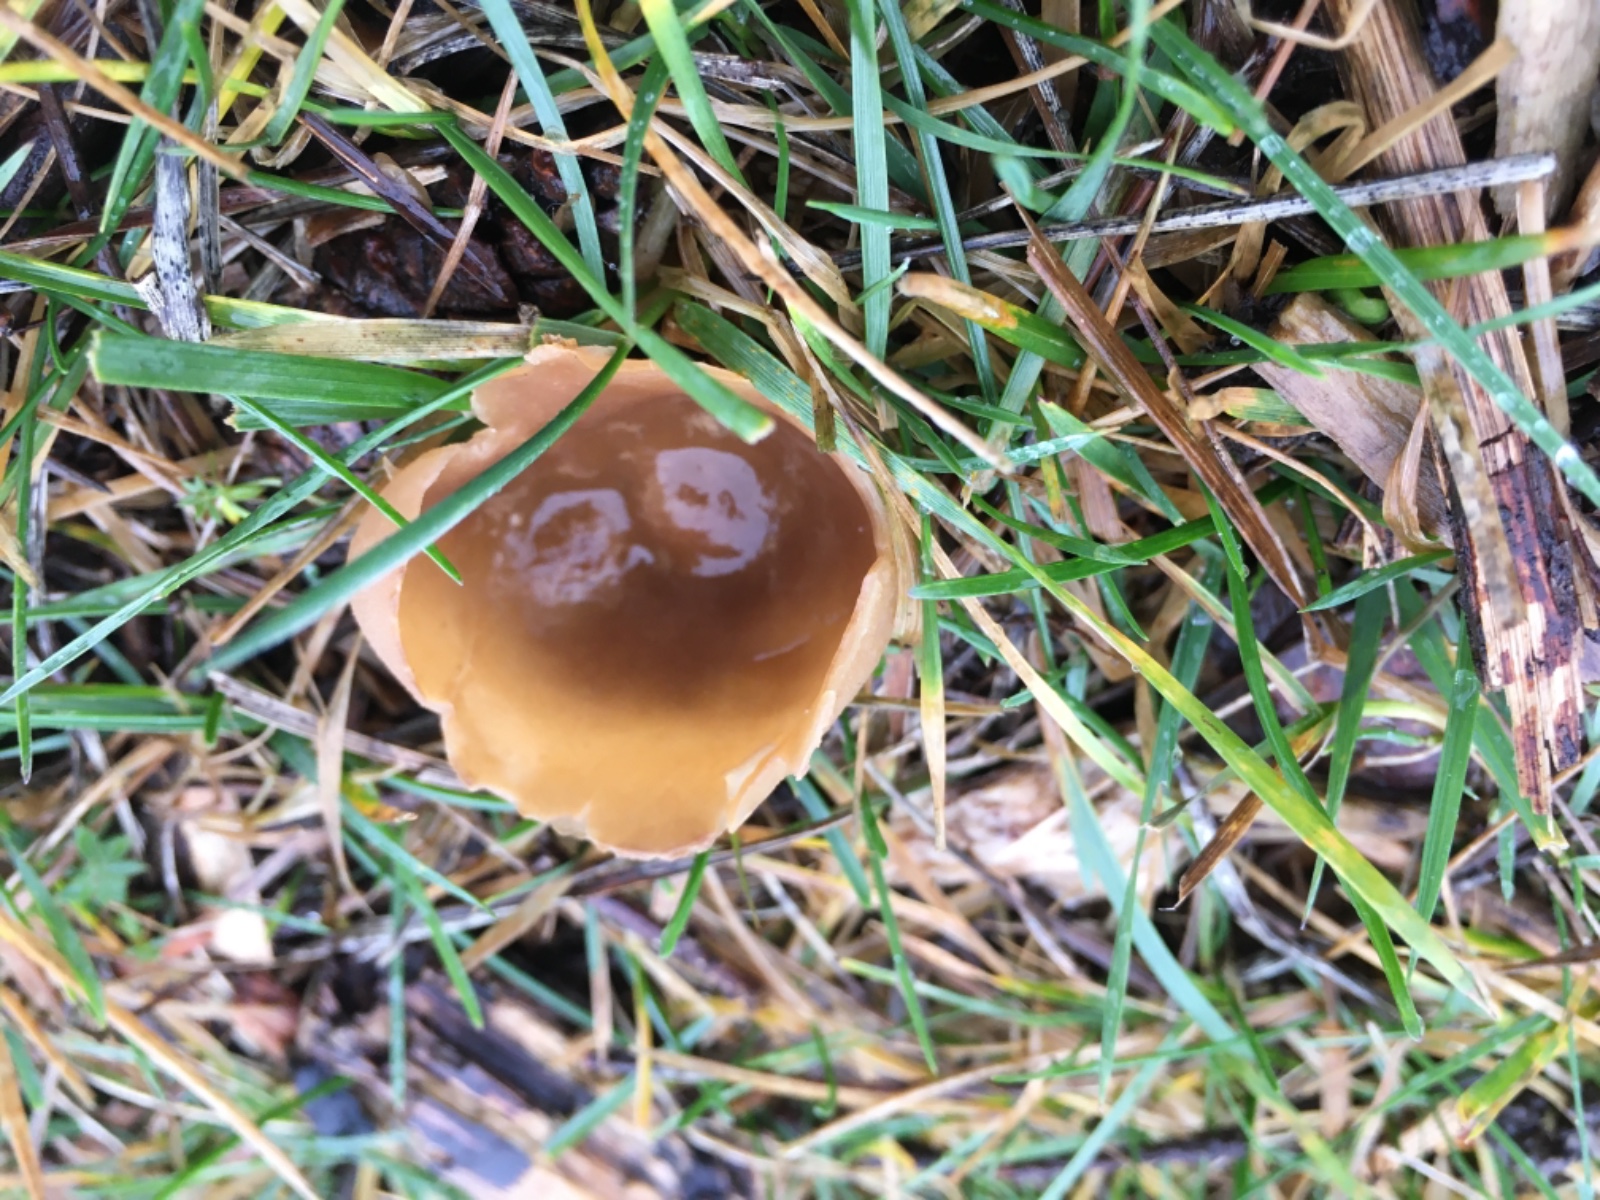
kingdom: Fungi
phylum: Ascomycota
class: Pezizomycetes
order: Pezizales
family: Pezizaceae
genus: Peziza
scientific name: Peziza
